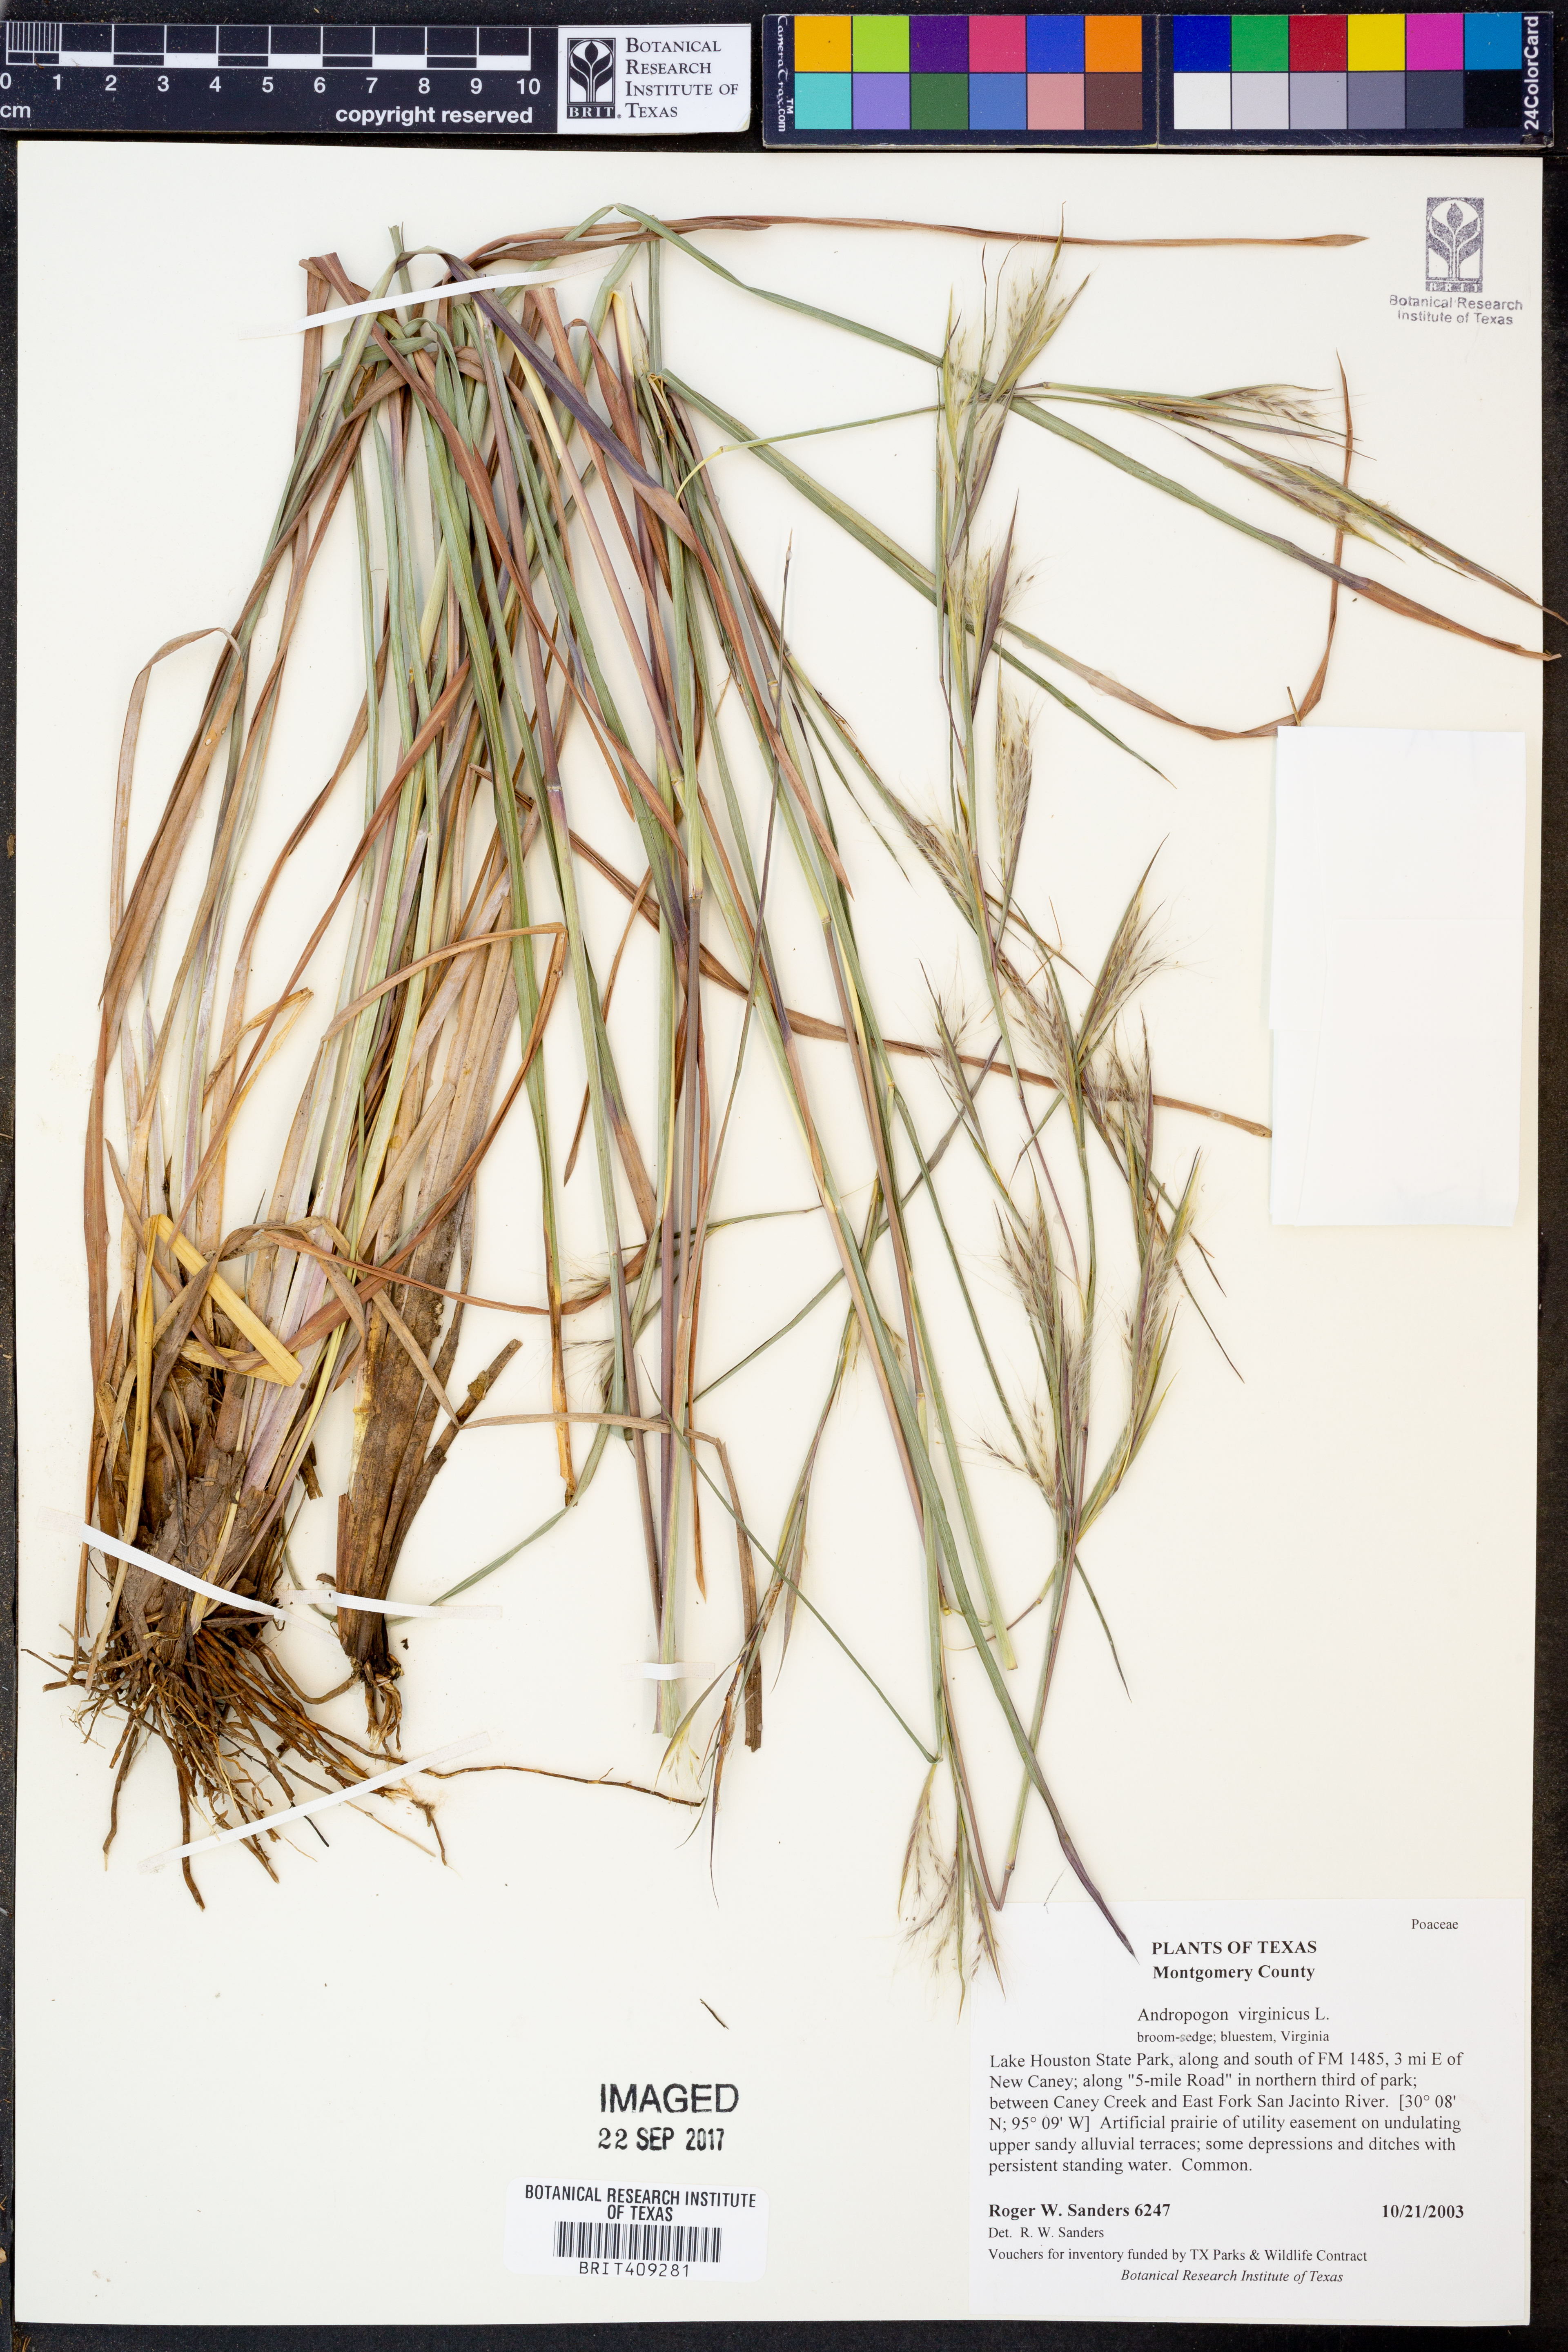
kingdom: Plantae
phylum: Tracheophyta
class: Liliopsida
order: Poales
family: Poaceae
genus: Andropogon
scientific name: Andropogon virginicus
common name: Broomsedge bluestem
